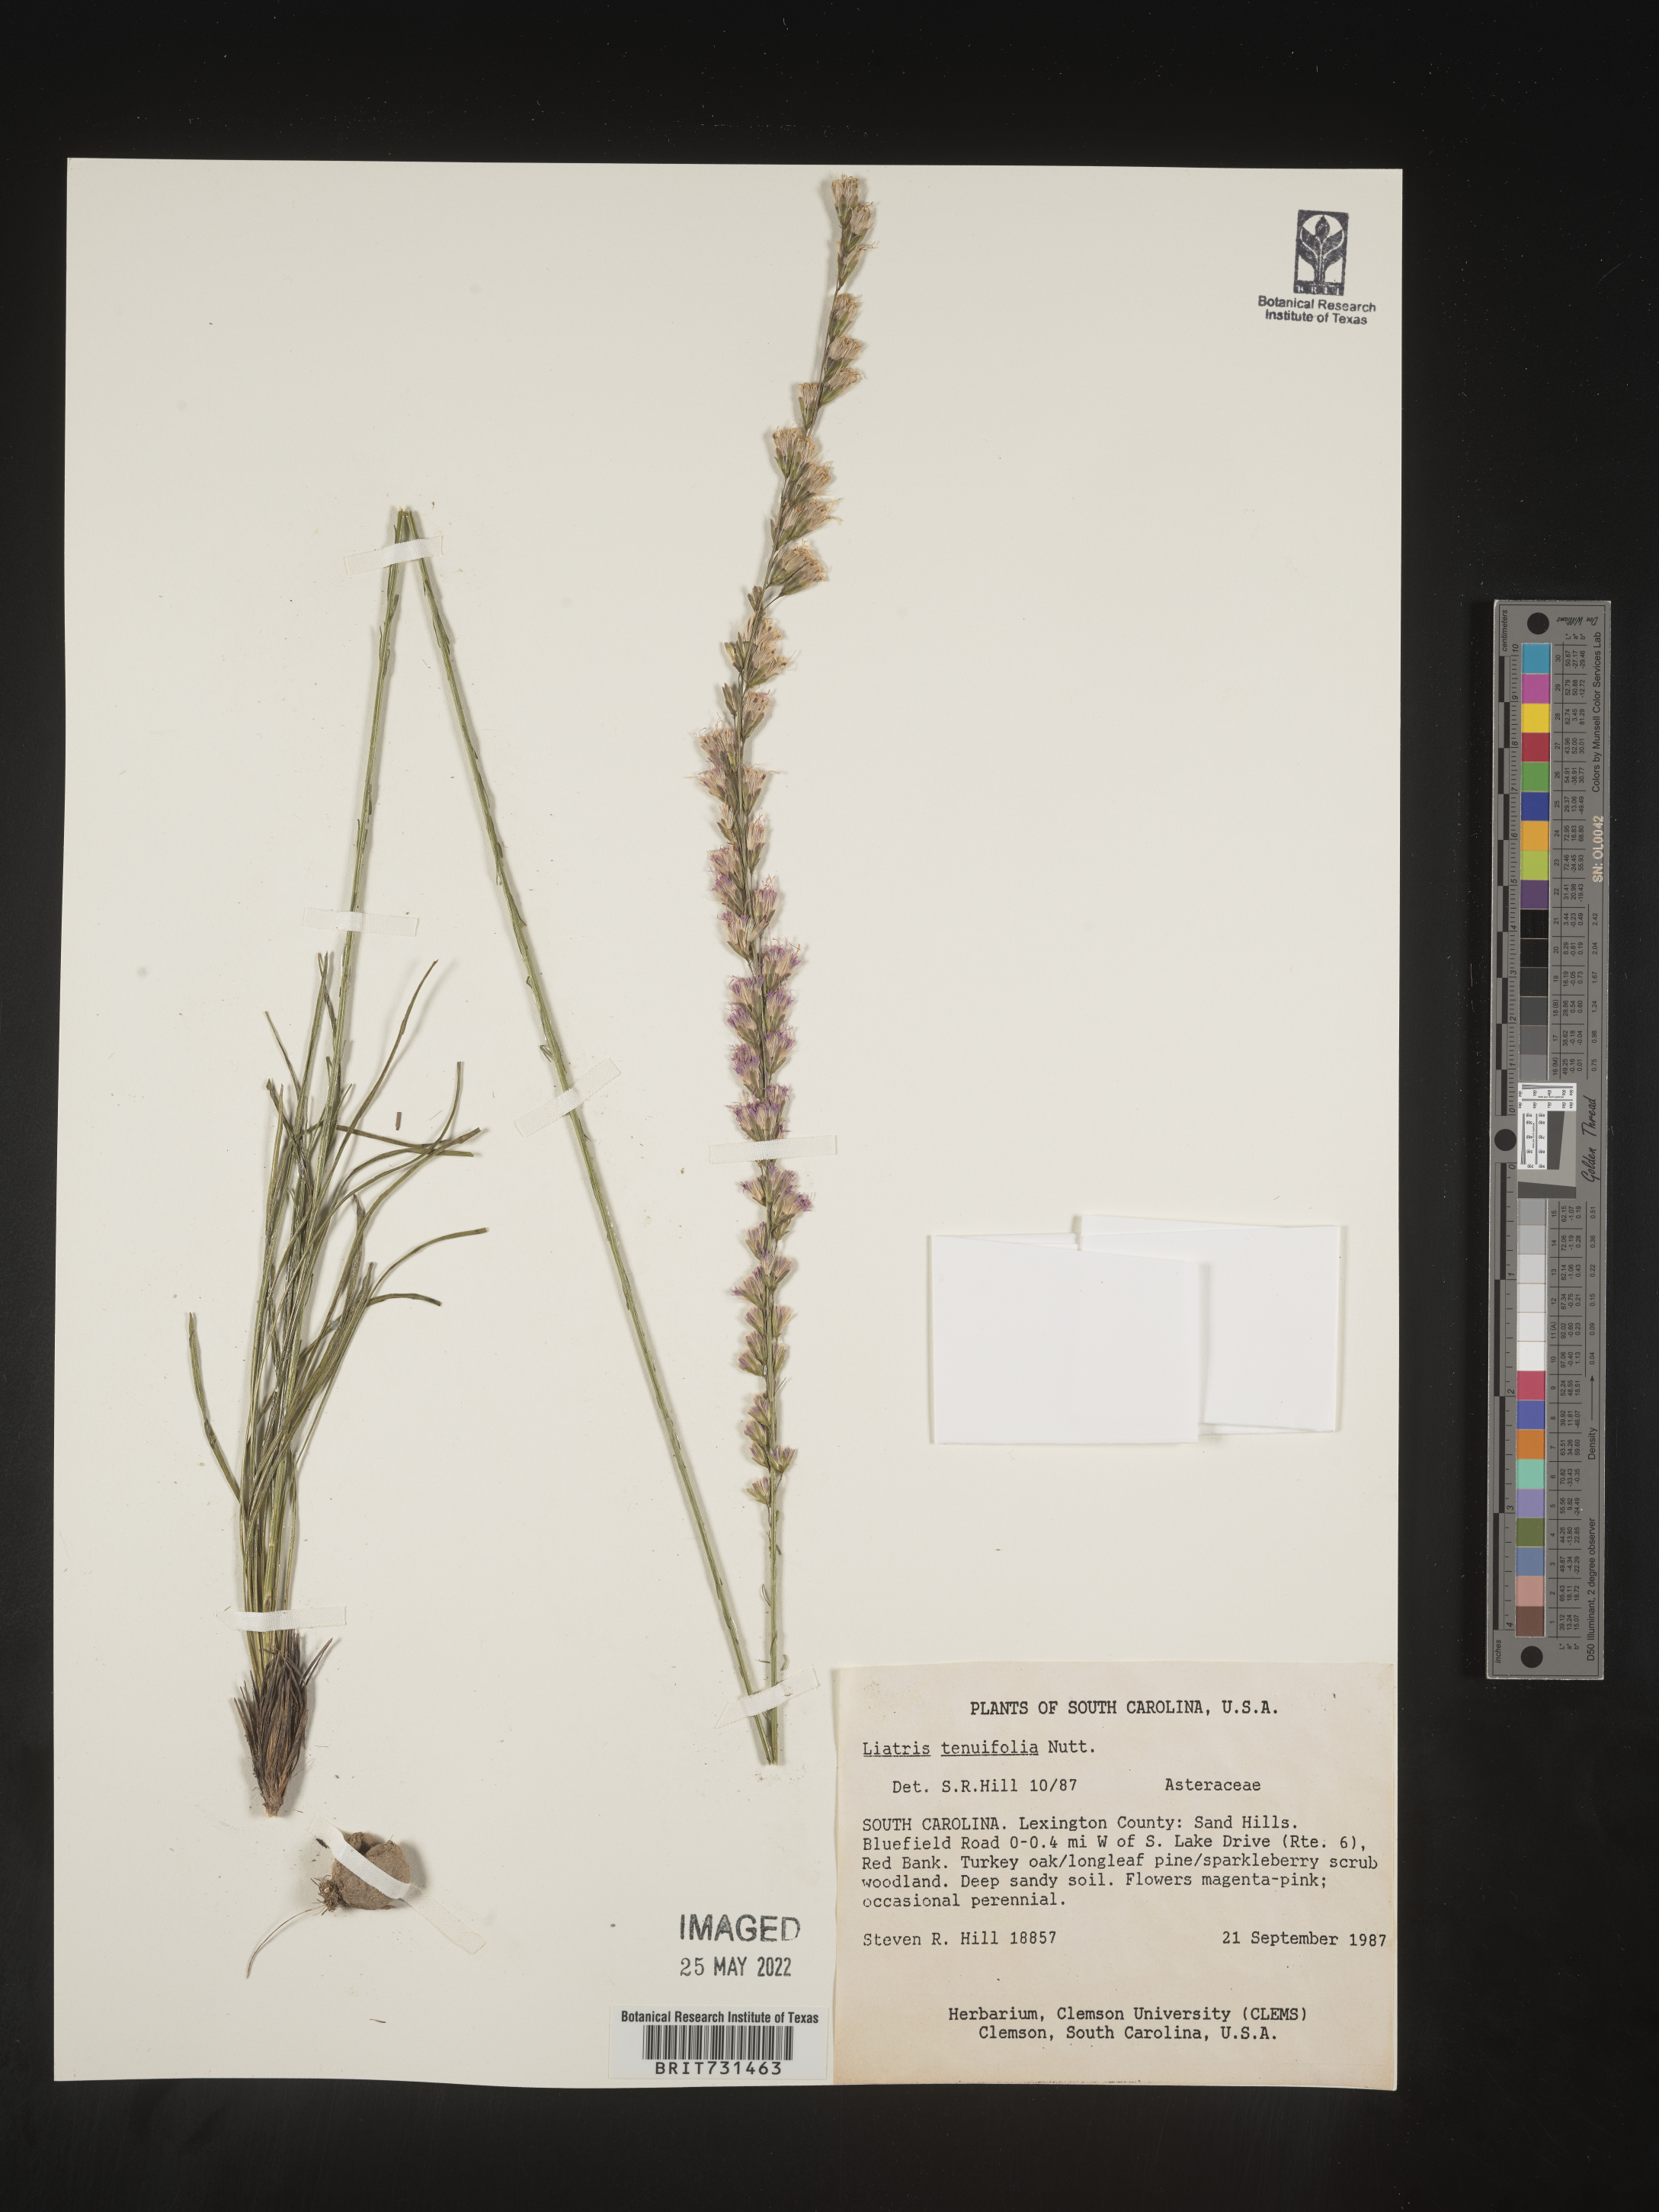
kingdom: Plantae
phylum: Tracheophyta
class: Magnoliopsida
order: Asterales
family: Asteraceae
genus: Liatris
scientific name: Liatris tenuifolia
